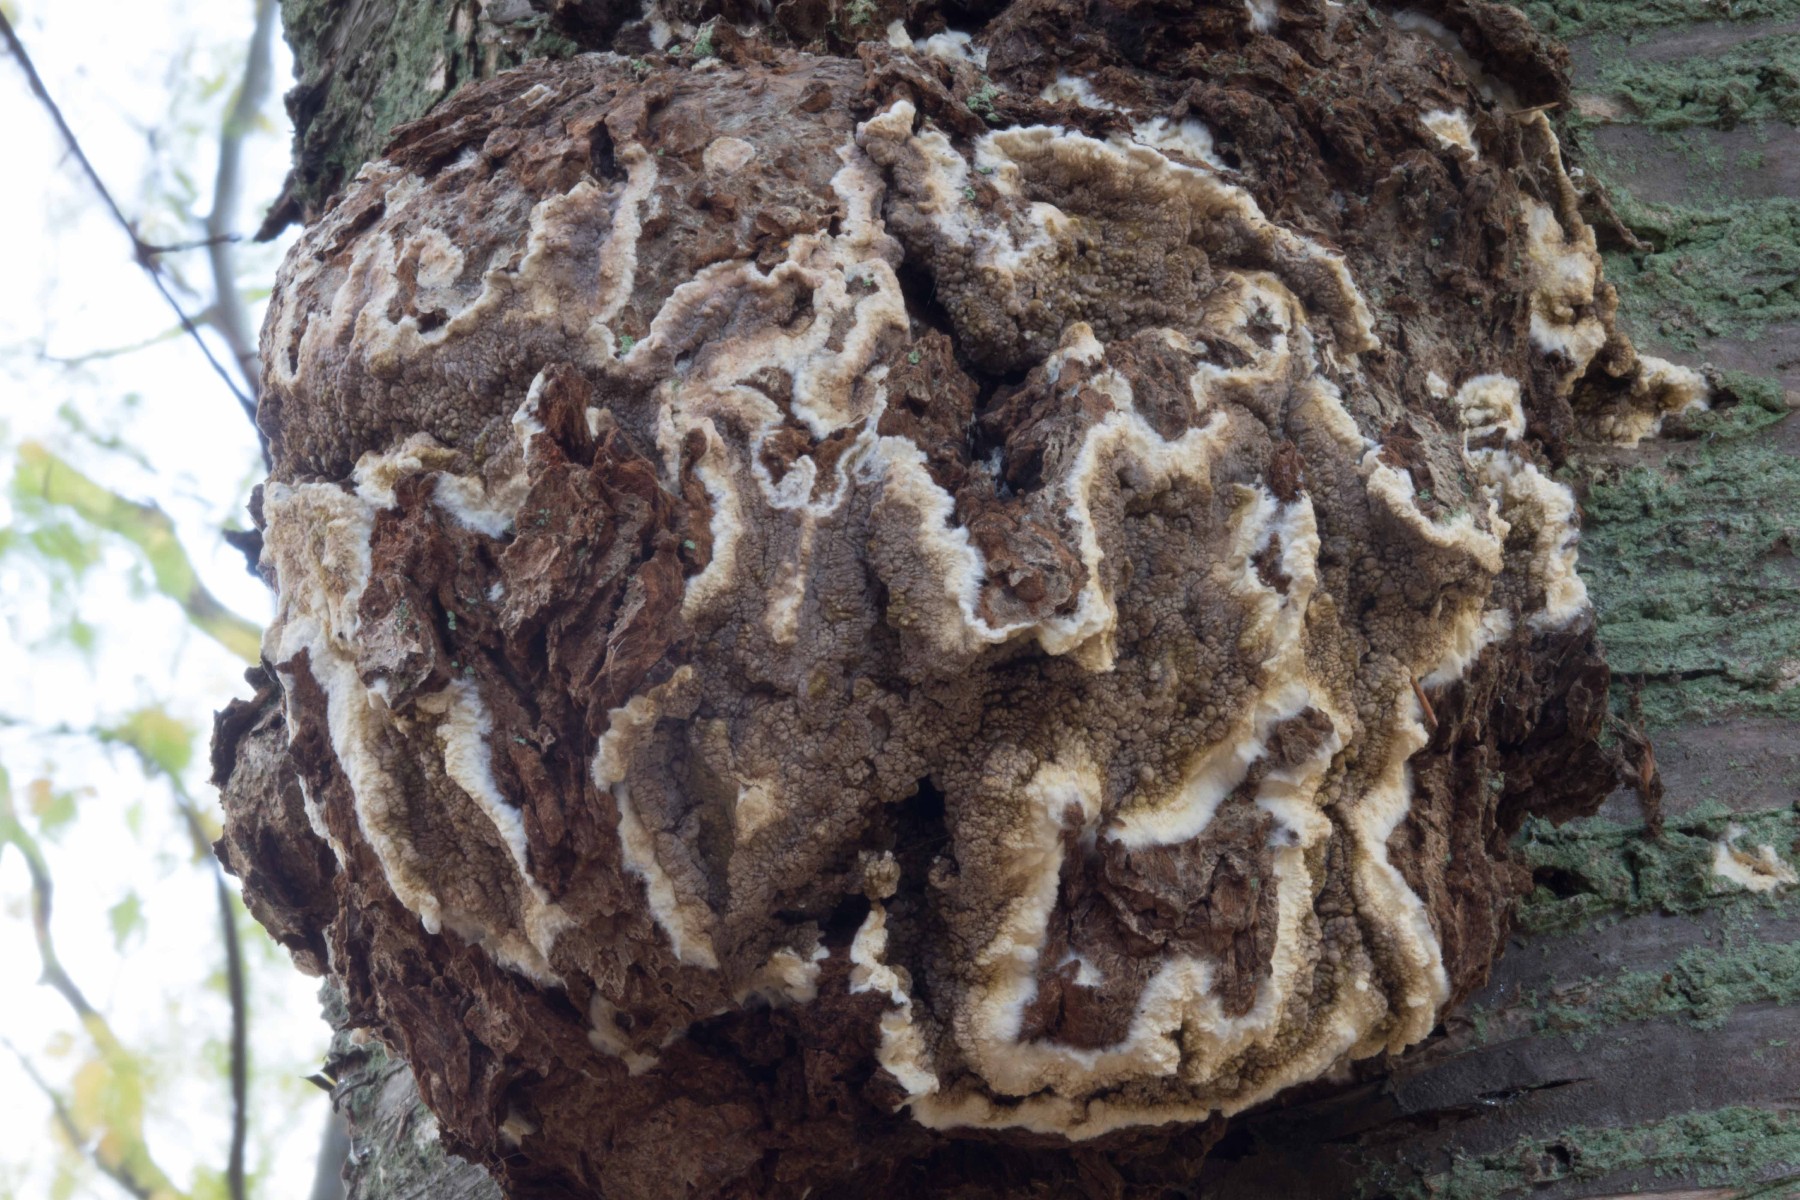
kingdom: Fungi
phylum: Basidiomycota
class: Agaricomycetes
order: Boletales
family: Coniophoraceae
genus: Coniophora
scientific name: Coniophora puteana
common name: gul tømmersvamp
